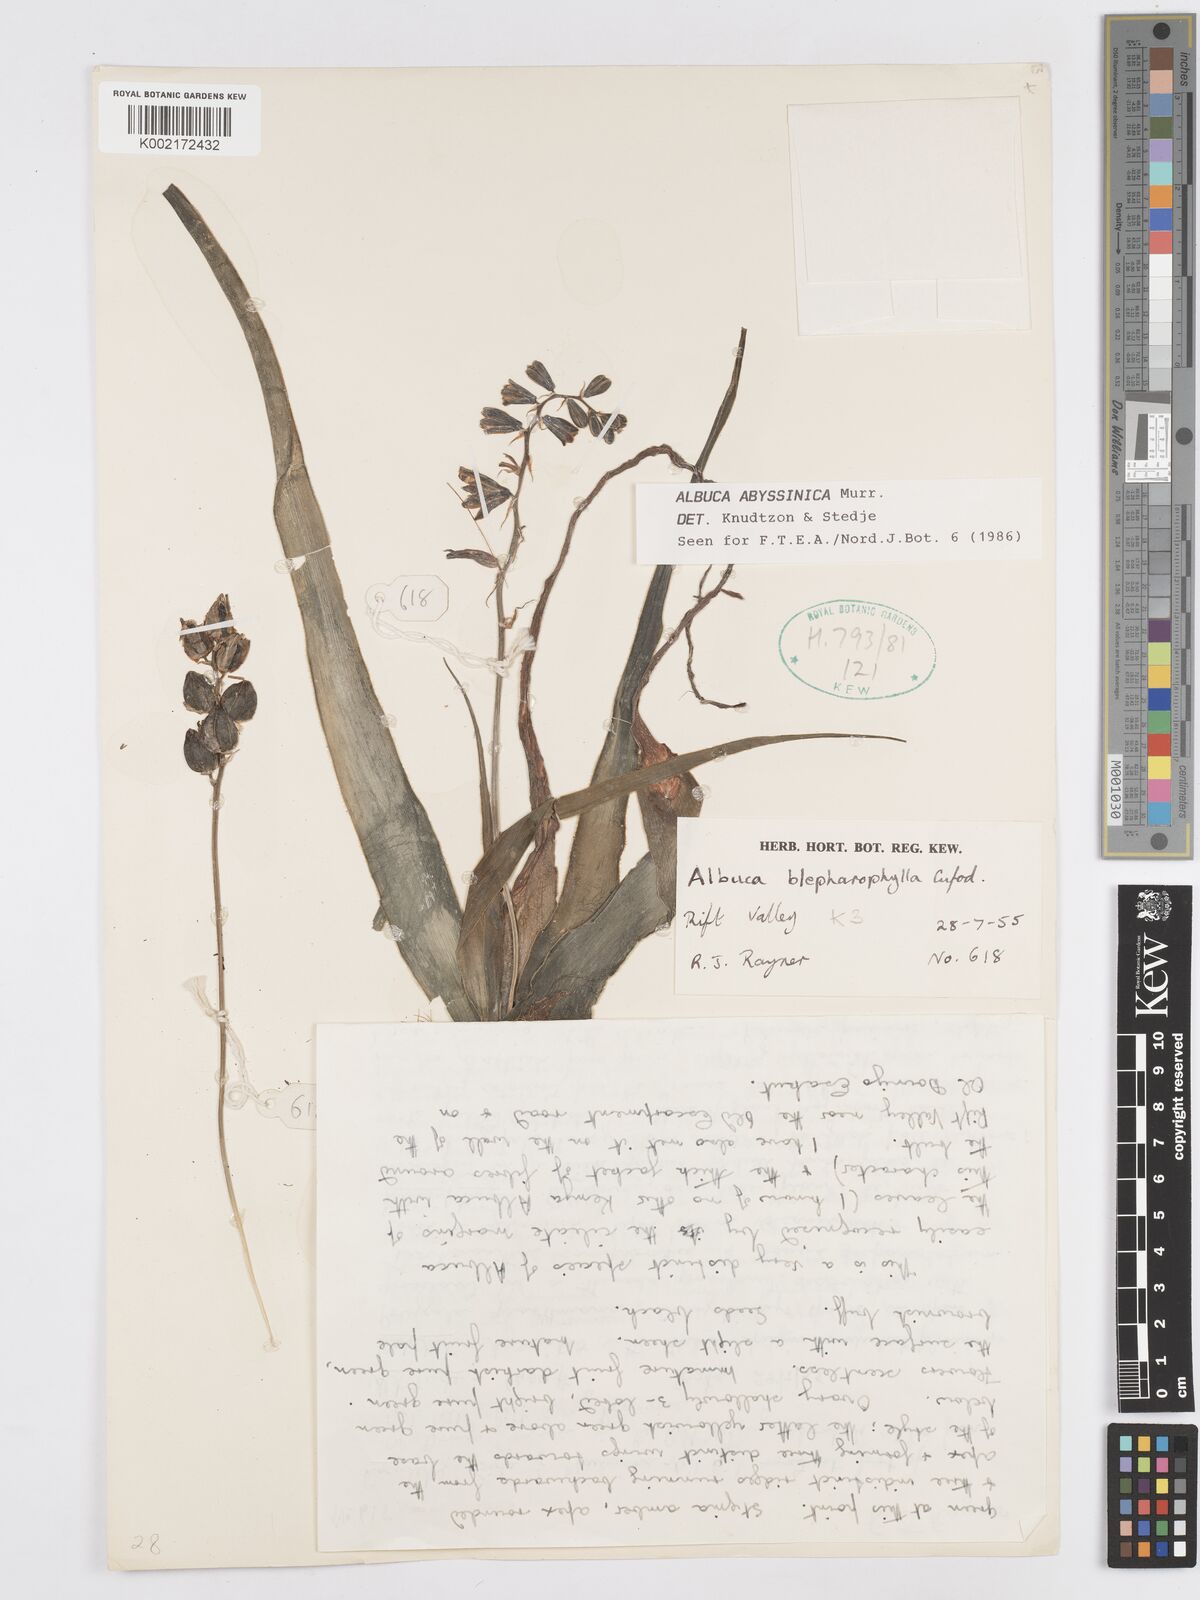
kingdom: Plantae
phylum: Tracheophyta
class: Liliopsida
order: Asparagales
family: Asparagaceae
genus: Albuca
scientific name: Albuca abyssinica
